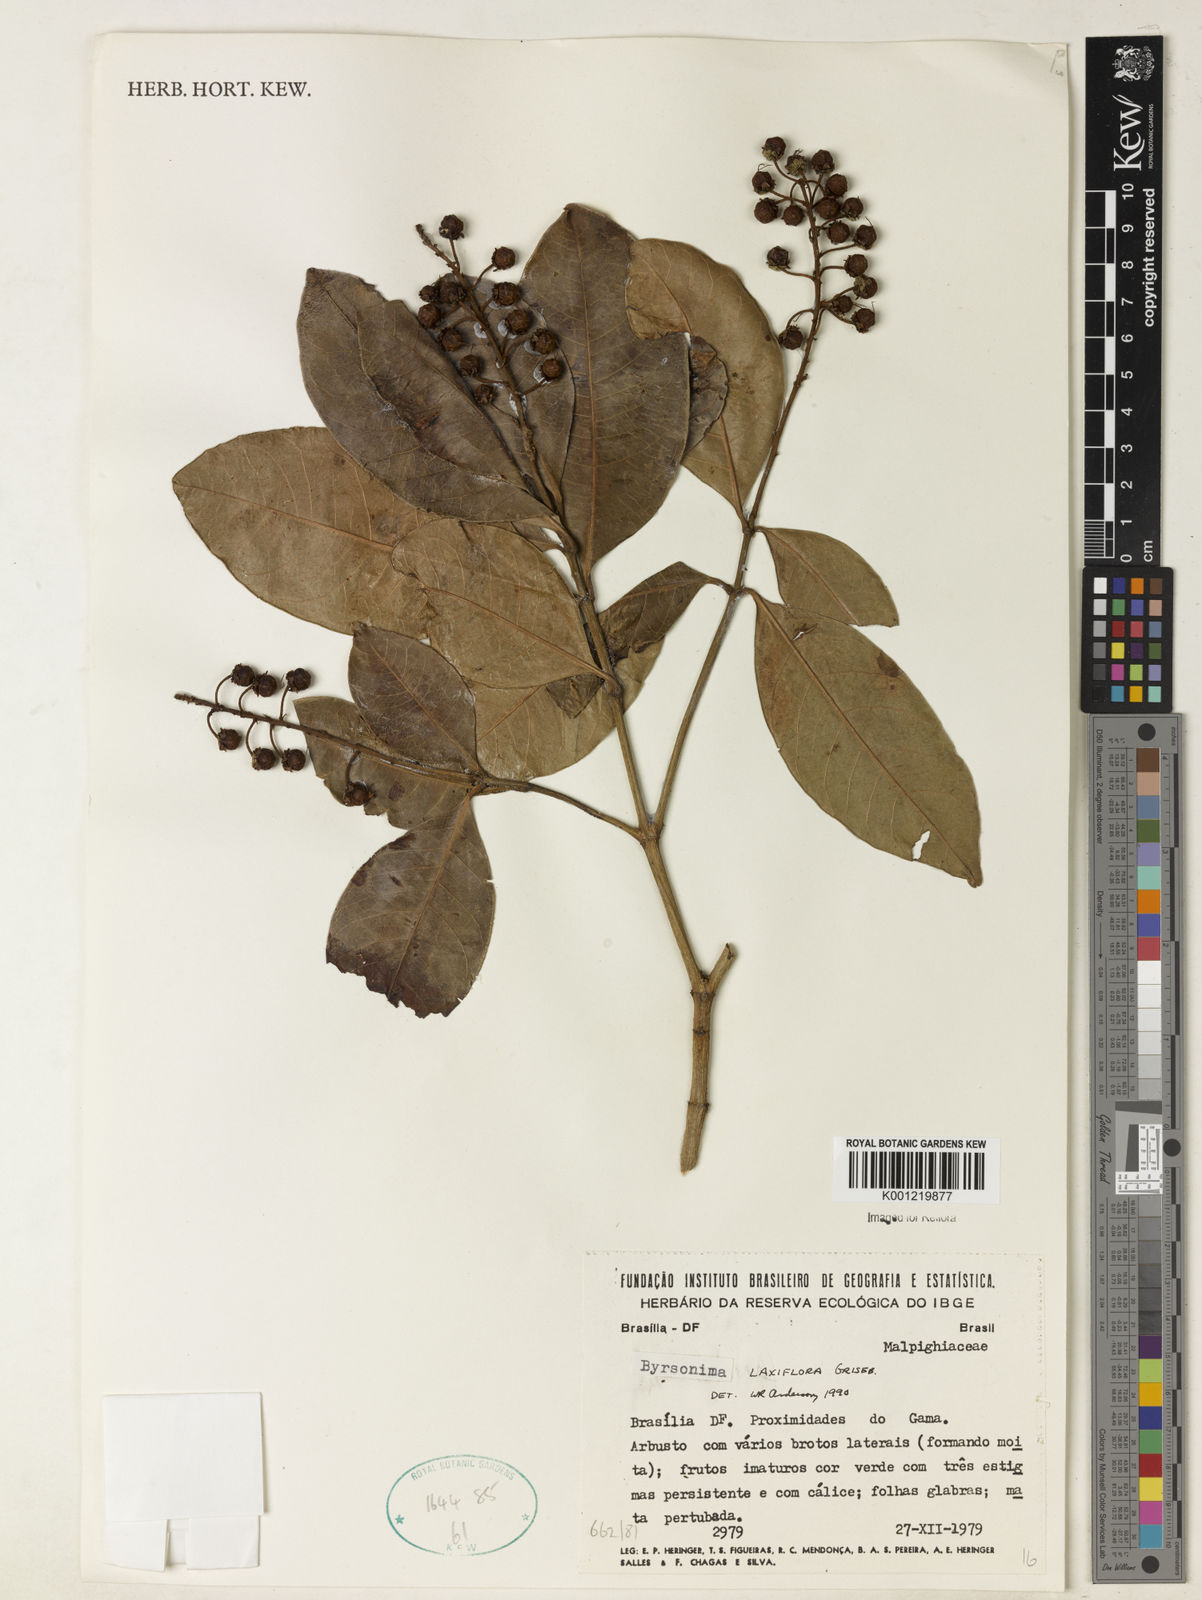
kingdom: Plantae
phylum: Tracheophyta
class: Magnoliopsida
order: Malpighiales
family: Malpighiaceae
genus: Byrsonima
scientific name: Byrsonima laxiflora
